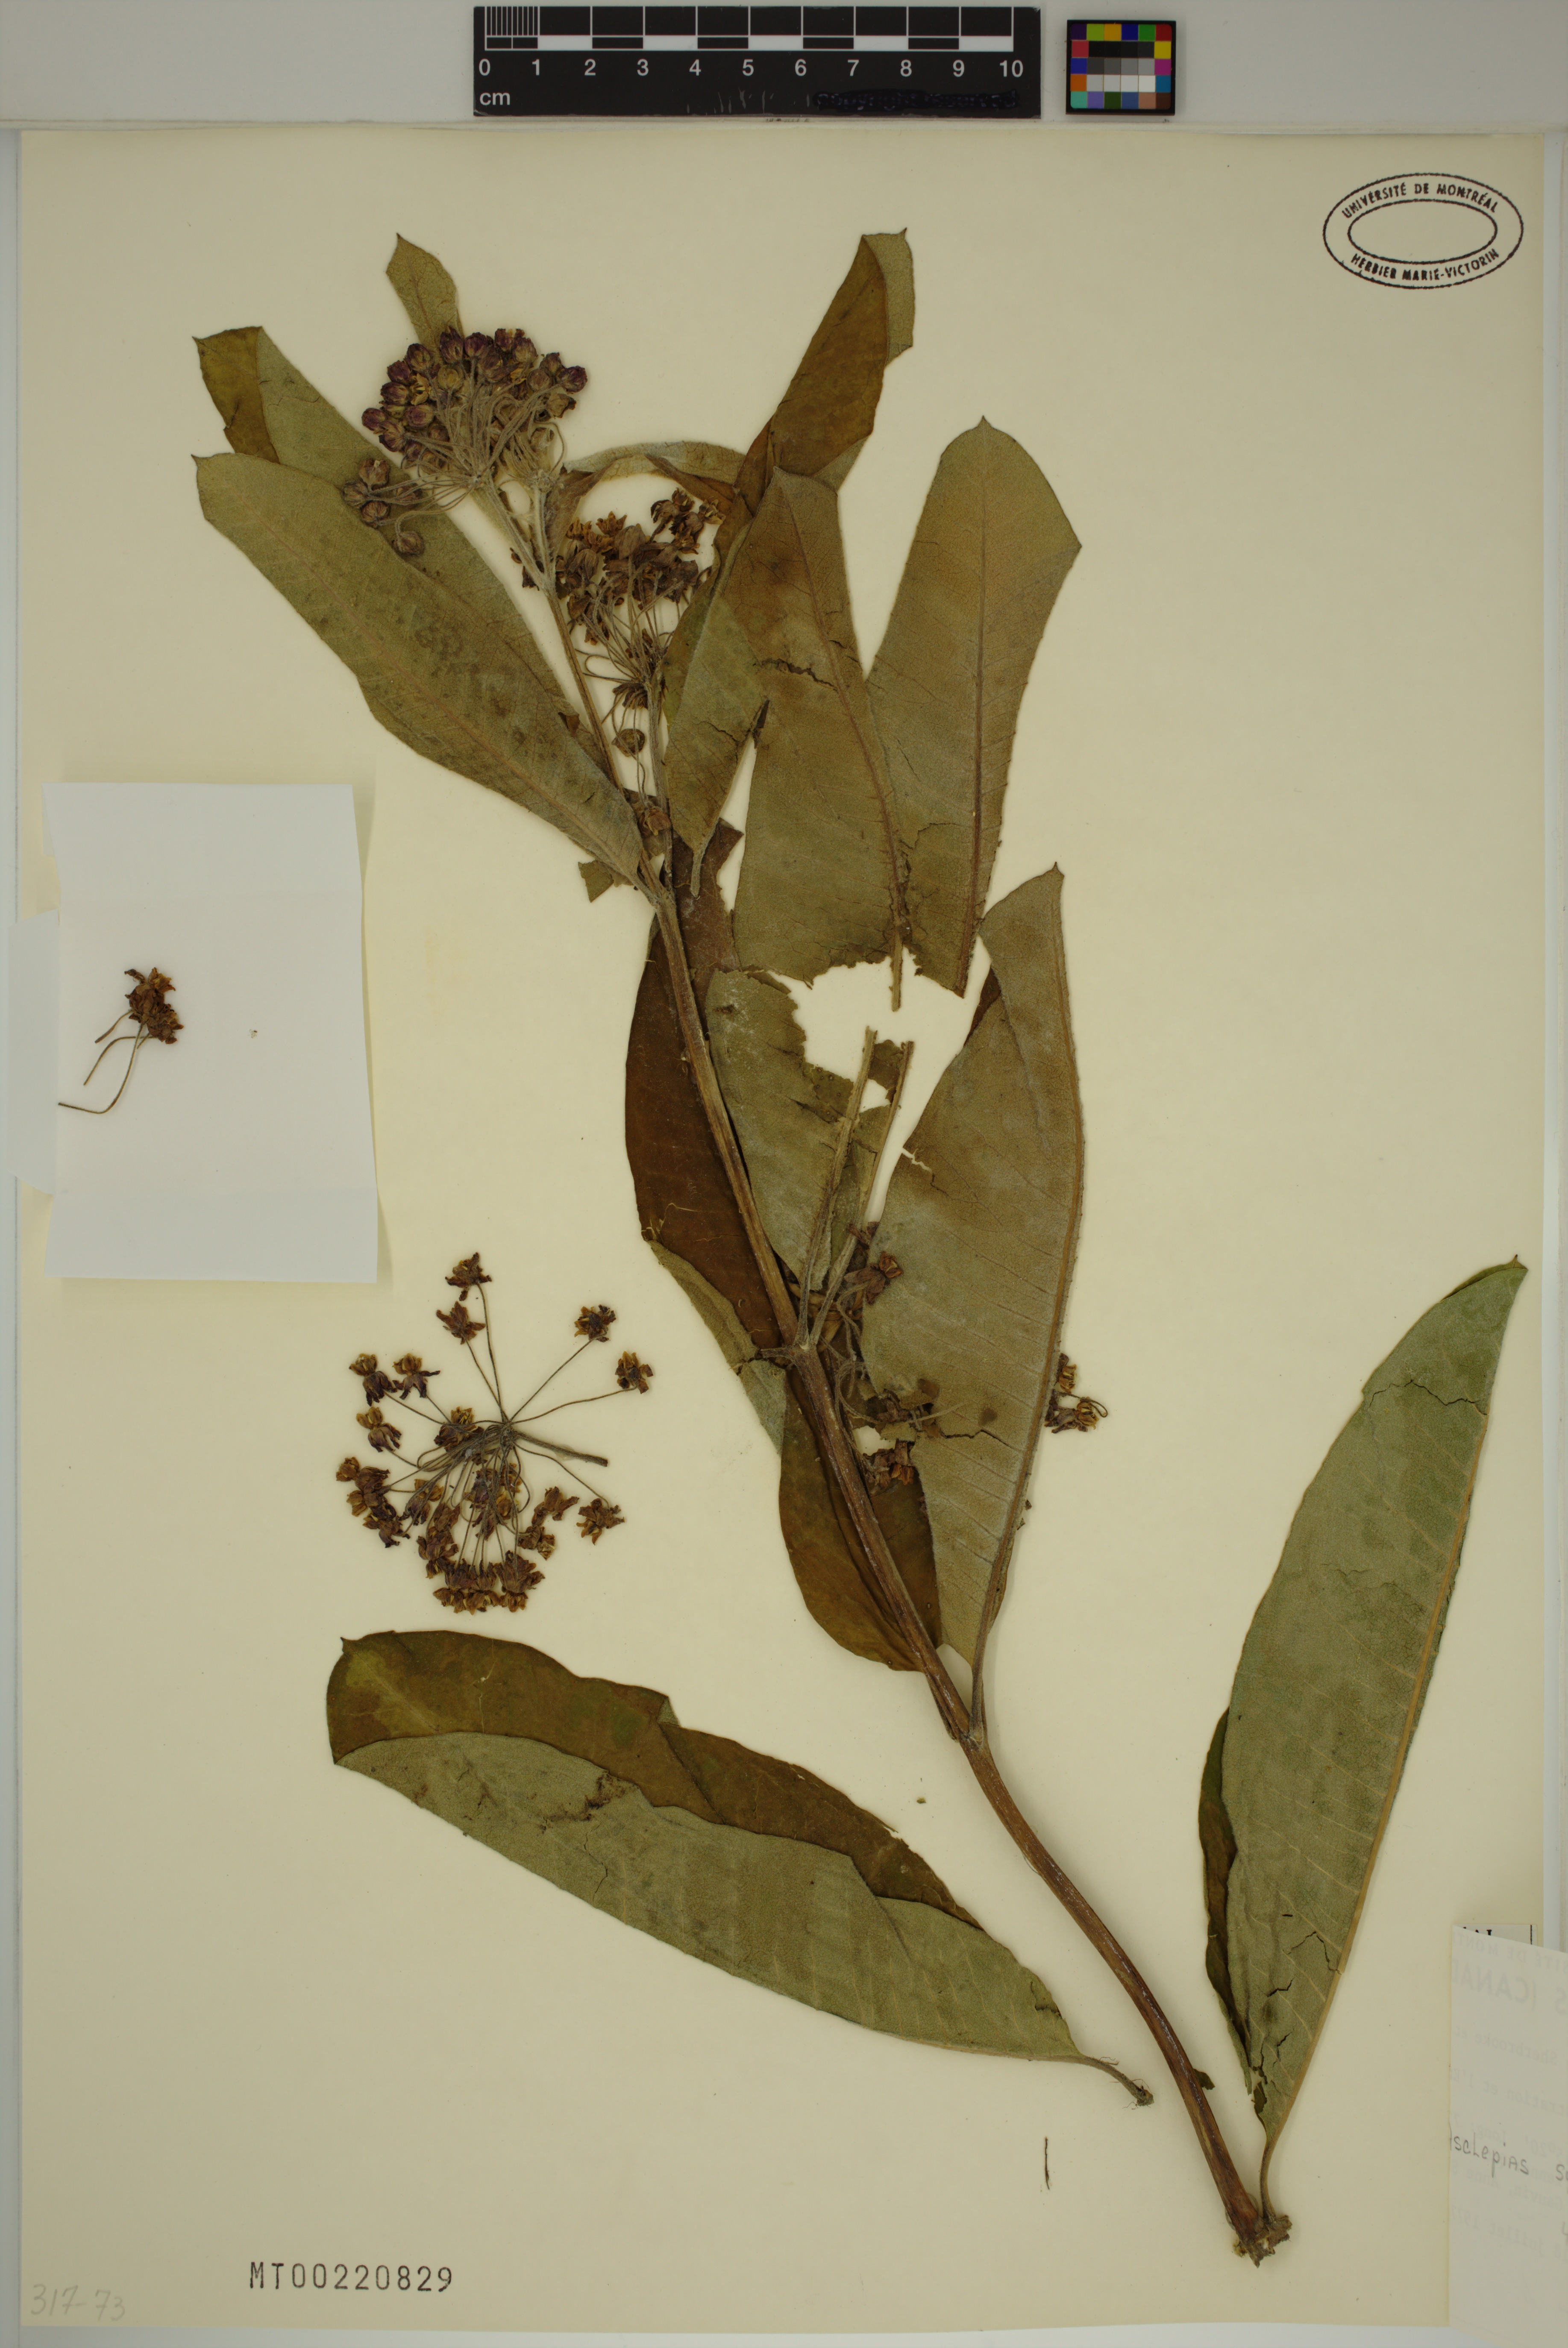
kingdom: Plantae
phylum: Tracheophyta
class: Magnoliopsida
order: Gentianales
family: Apocynaceae
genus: Asclepias
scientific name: Asclepias syriaca
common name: Common milkweed
